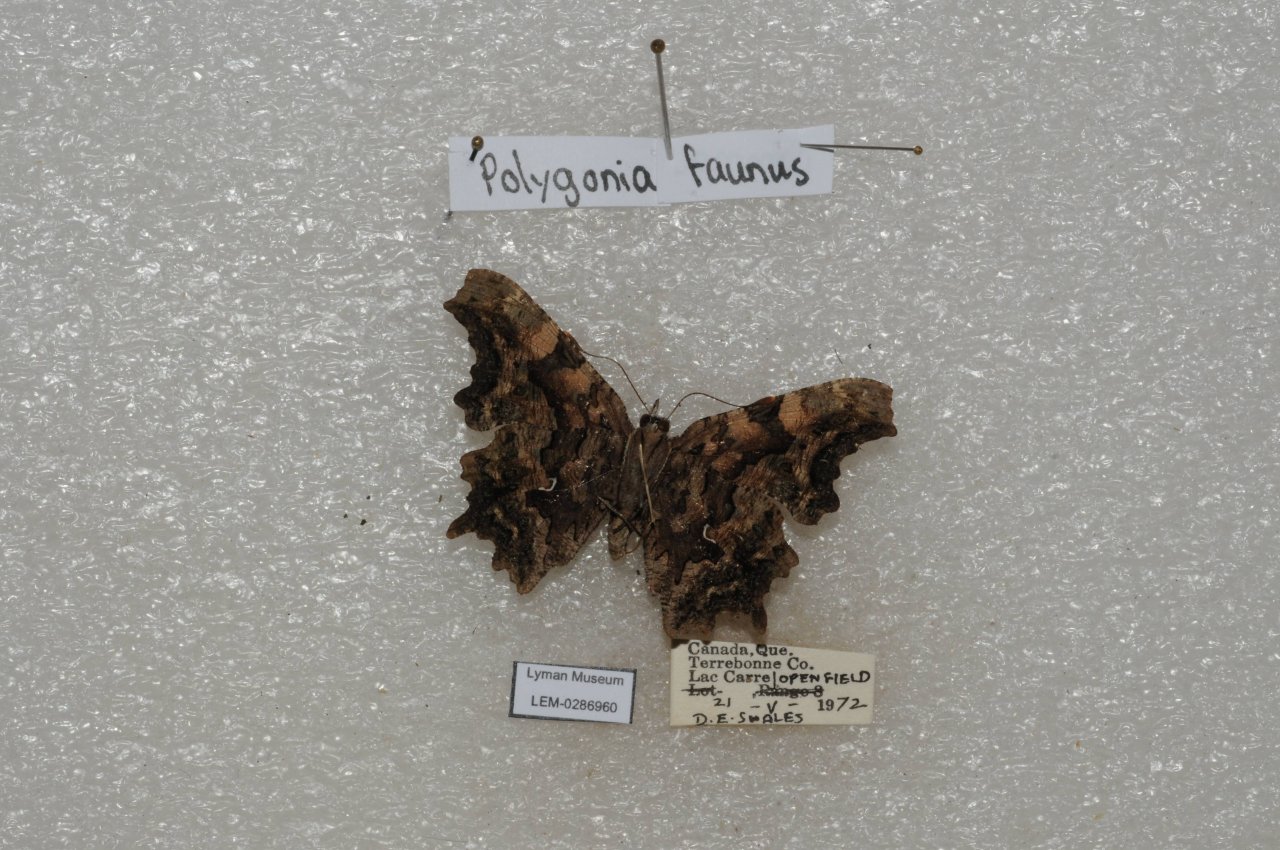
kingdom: Animalia
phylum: Arthropoda
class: Insecta
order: Lepidoptera
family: Nymphalidae
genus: Polygonia
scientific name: Polygonia faunus
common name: Green Comma
